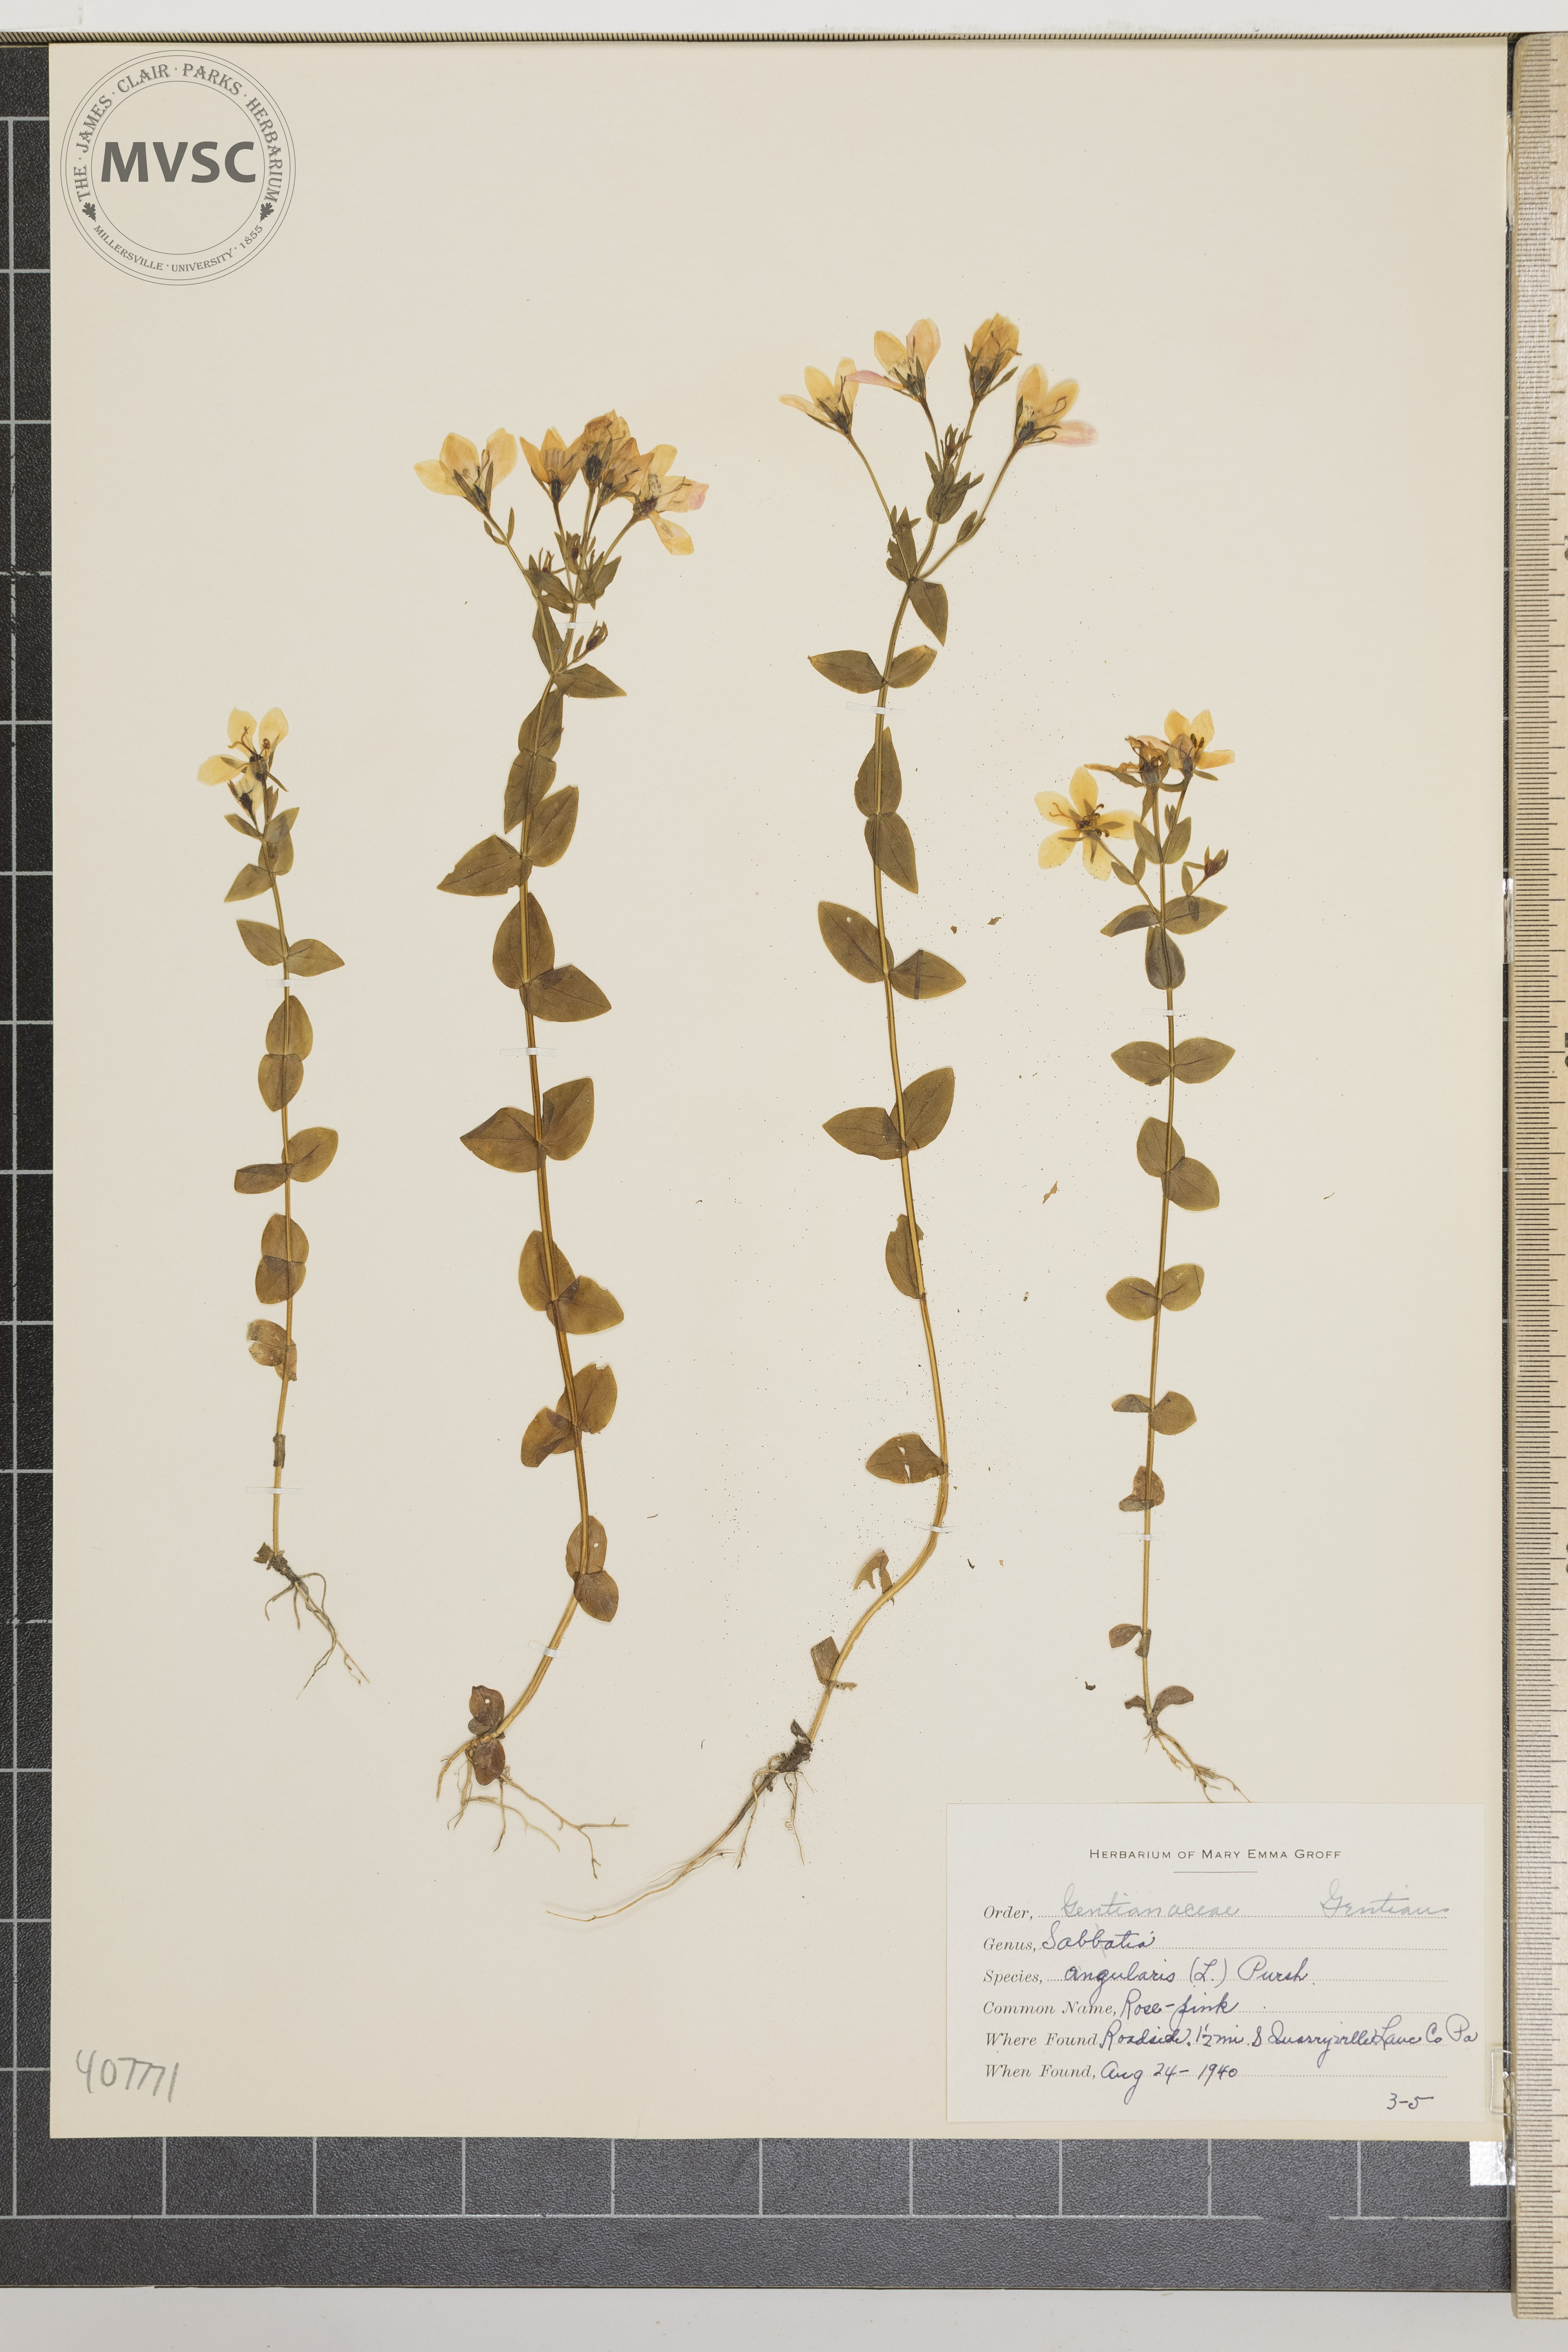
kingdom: Plantae
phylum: Tracheophyta
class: Magnoliopsida
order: Gentianales
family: Gentianaceae
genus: Sabatia
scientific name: Sabatia angularis
